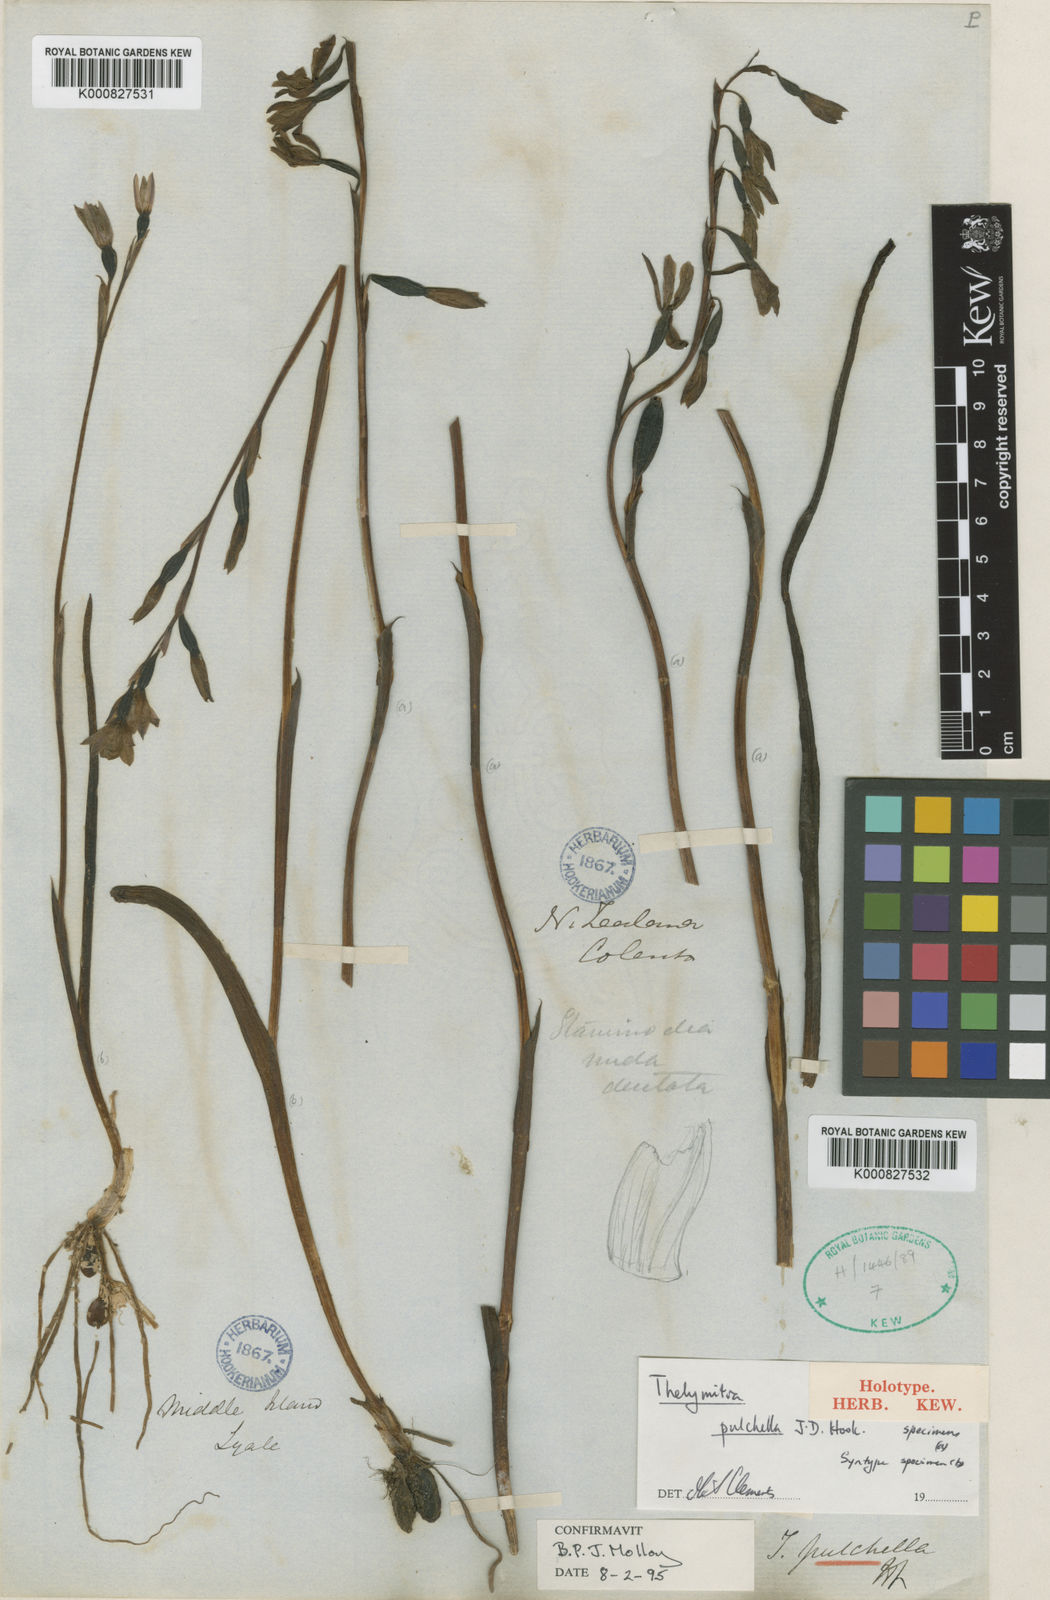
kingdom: Plantae
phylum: Tracheophyta
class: Liliopsida
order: Asparagales
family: Orchidaceae
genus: Thelymitra
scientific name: Thelymitra pulchella
